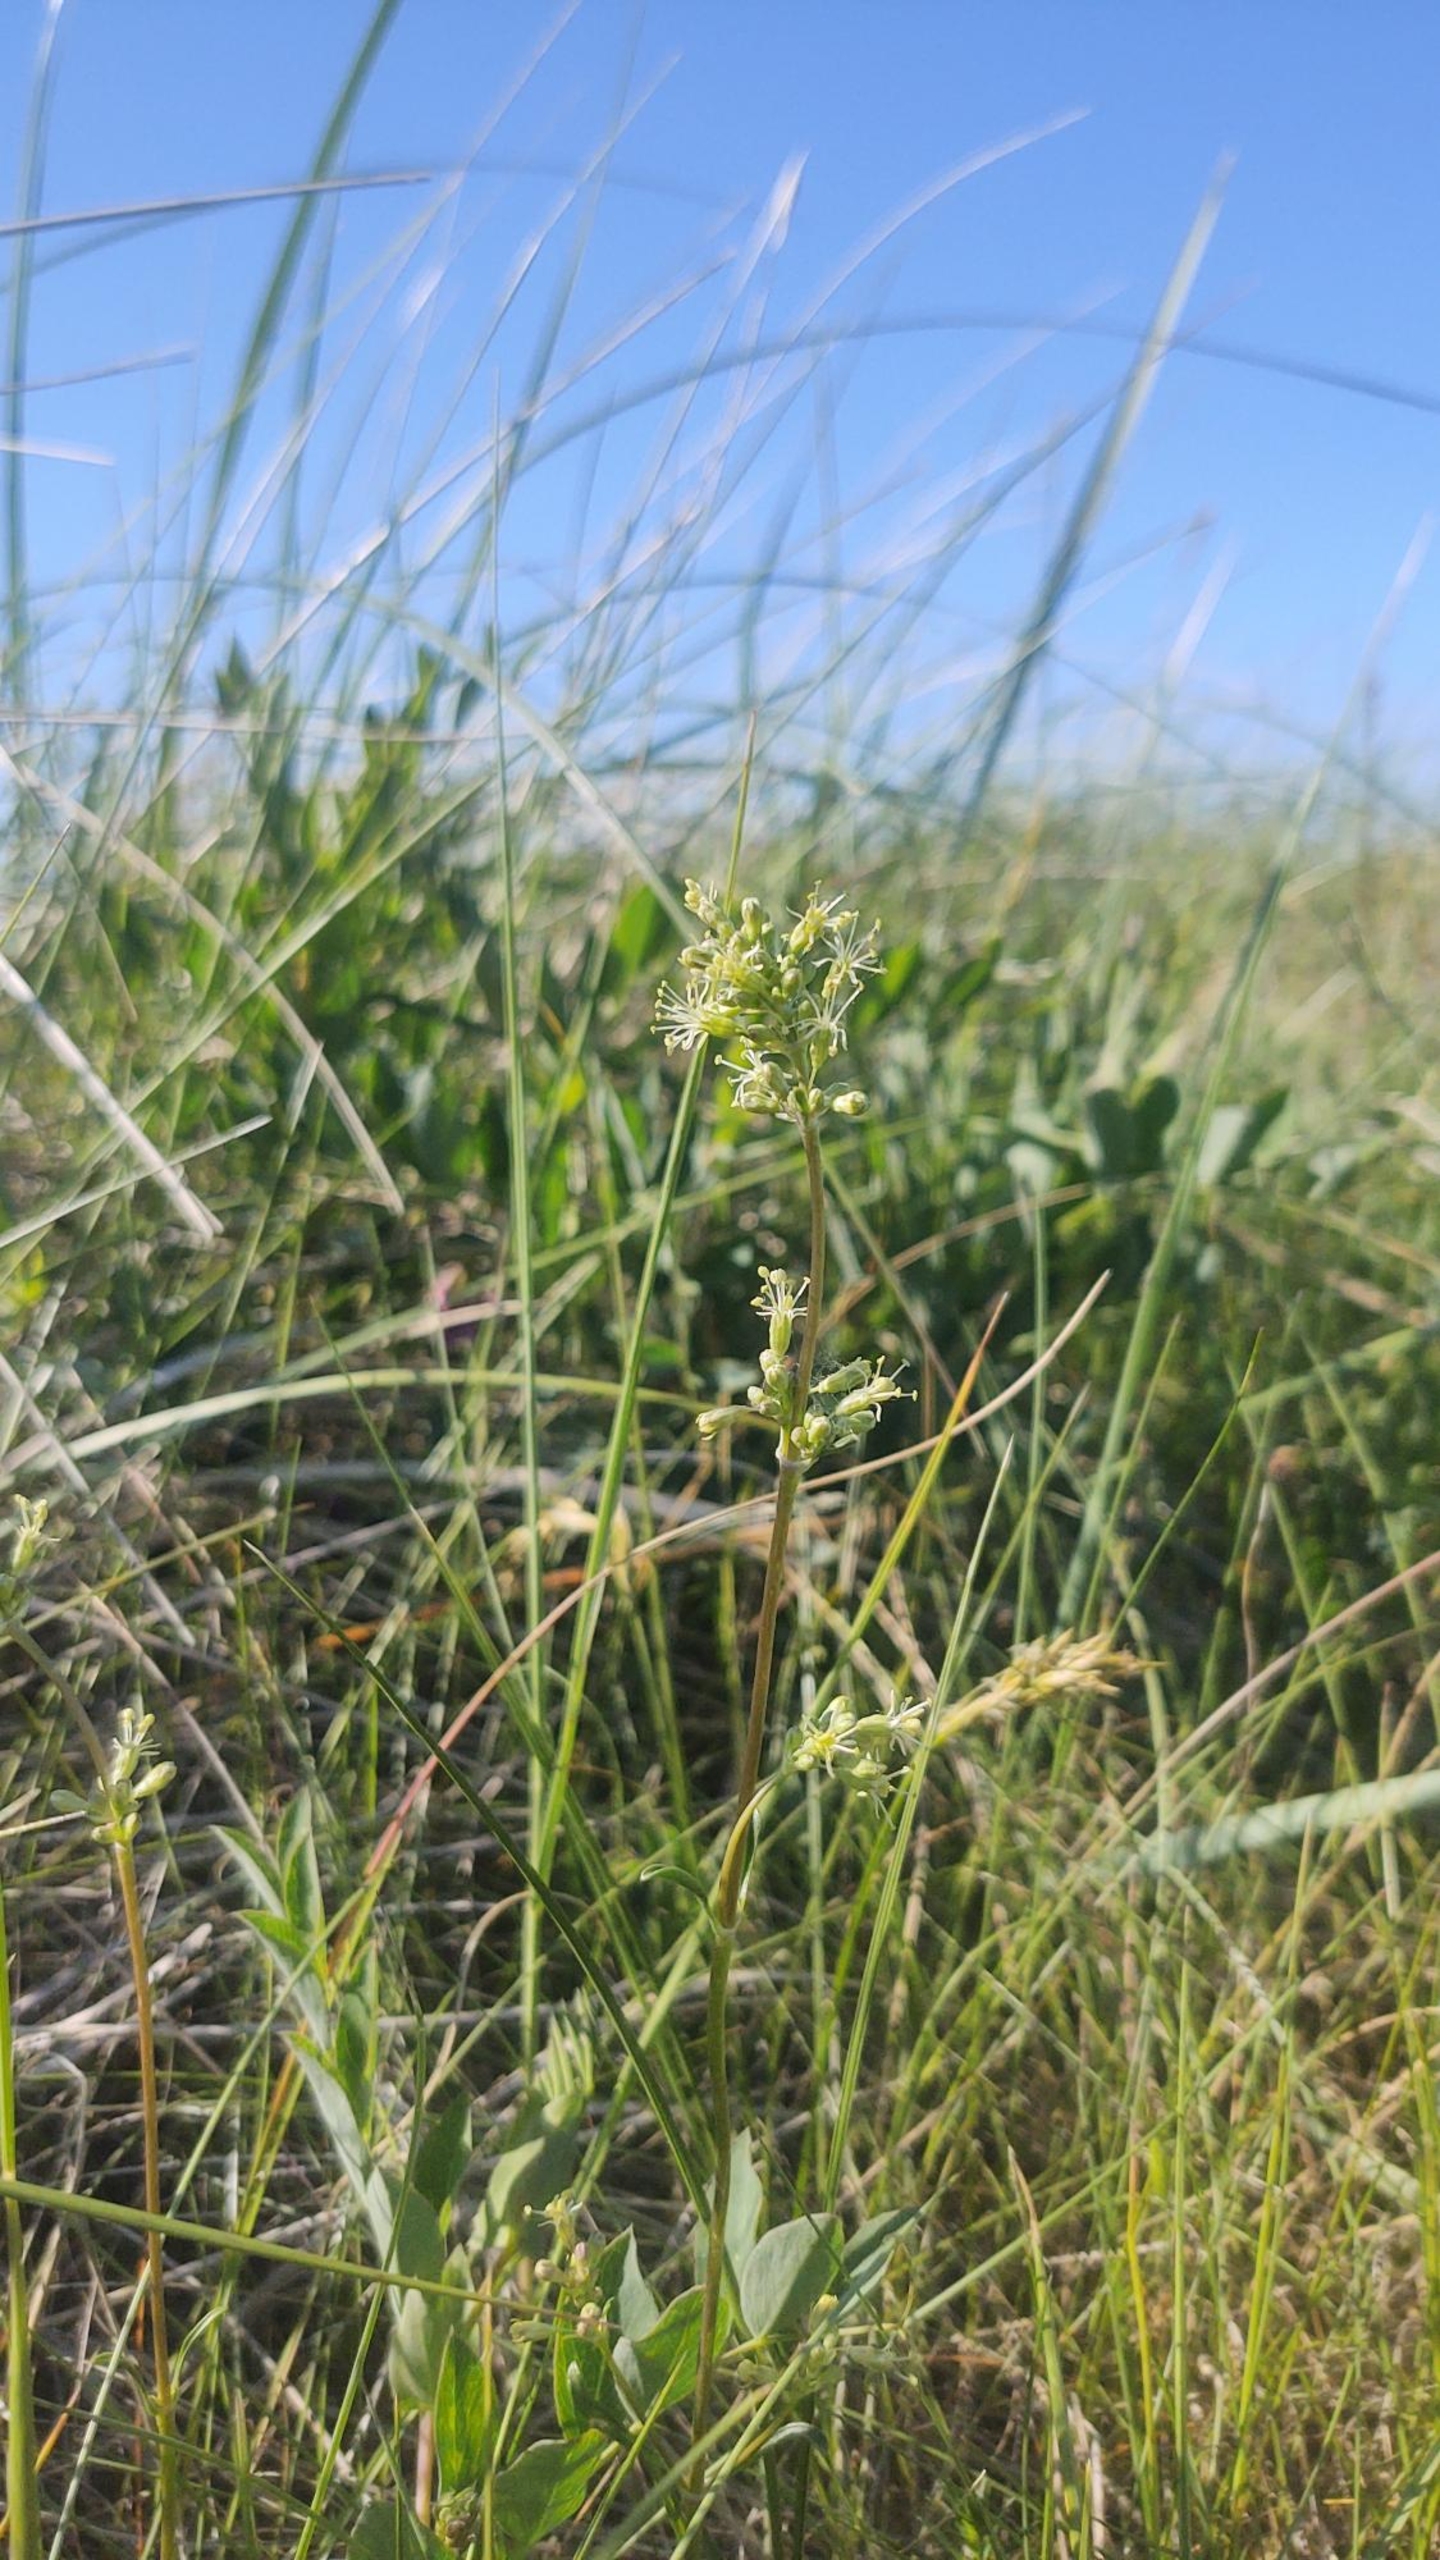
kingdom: Plantae
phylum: Tracheophyta
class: Magnoliopsida
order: Caryophyllales
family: Caryophyllaceae
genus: Silene
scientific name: Silene otites
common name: Klit-limurt
